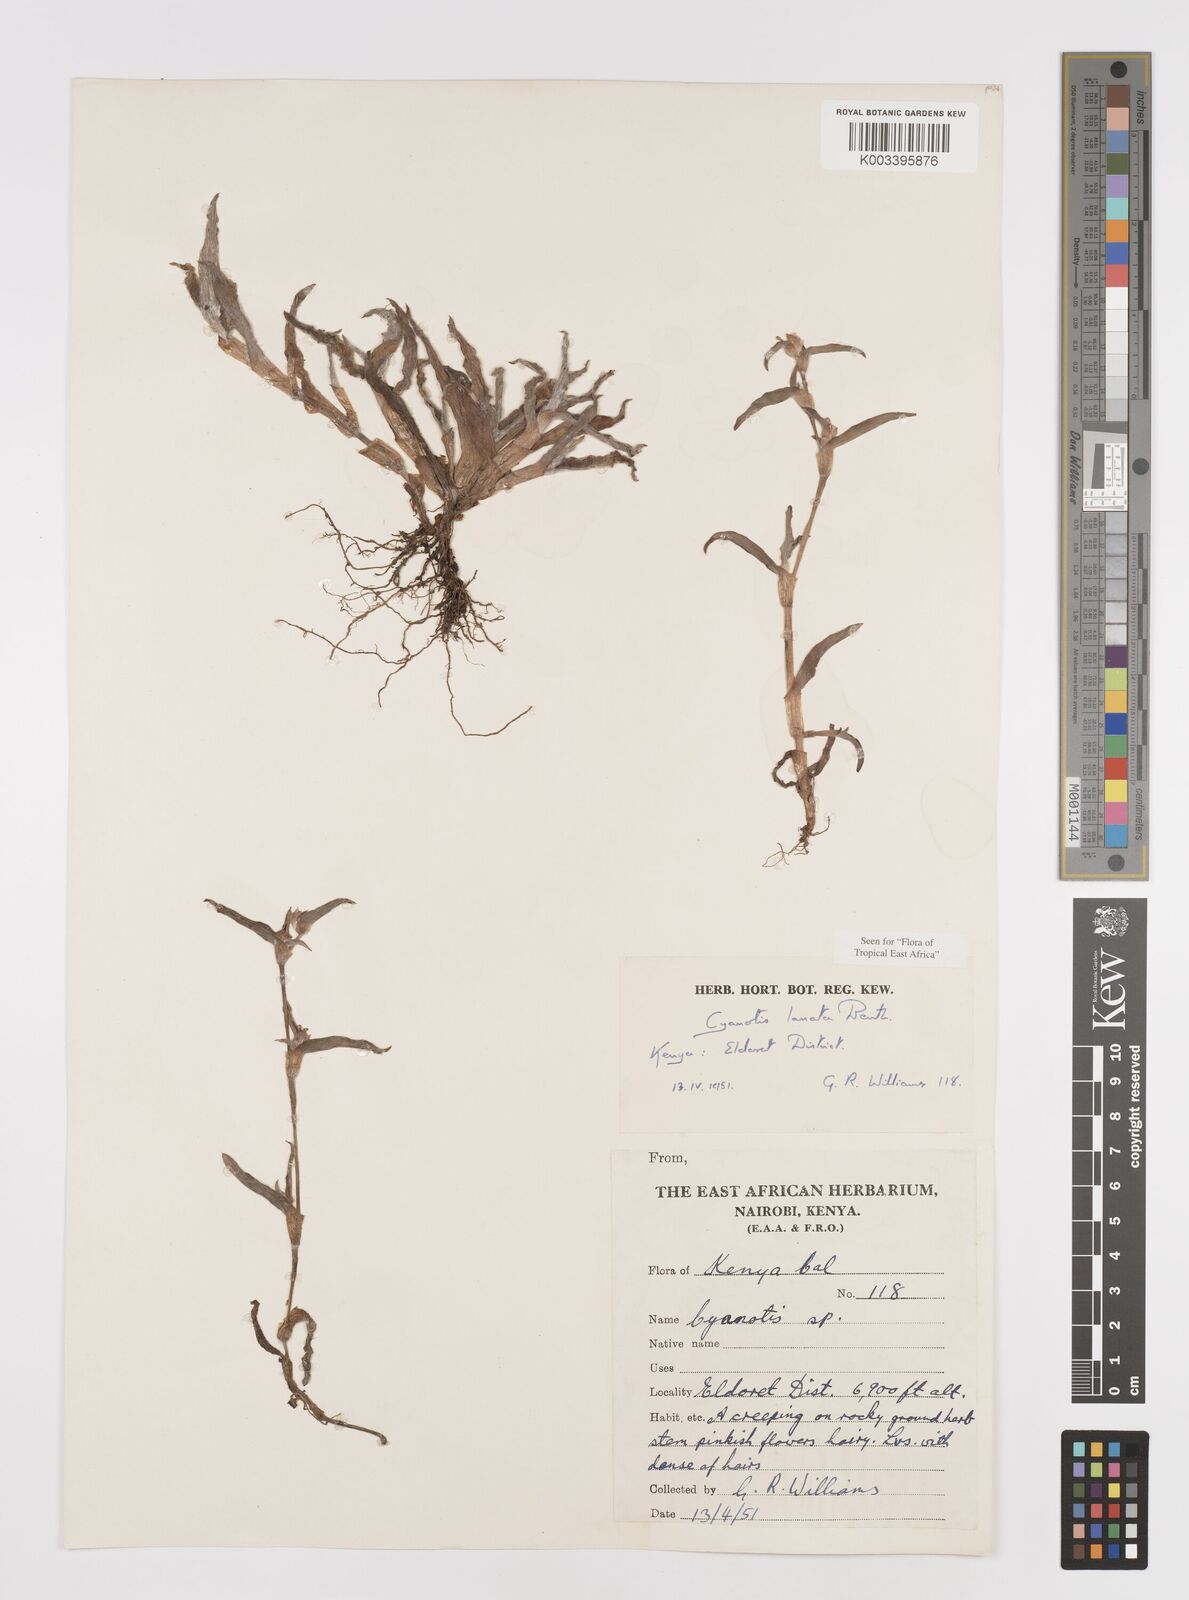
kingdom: Plantae
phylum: Tracheophyta
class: Liliopsida
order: Commelinales
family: Commelinaceae
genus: Cyanotis
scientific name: Cyanotis lanata
